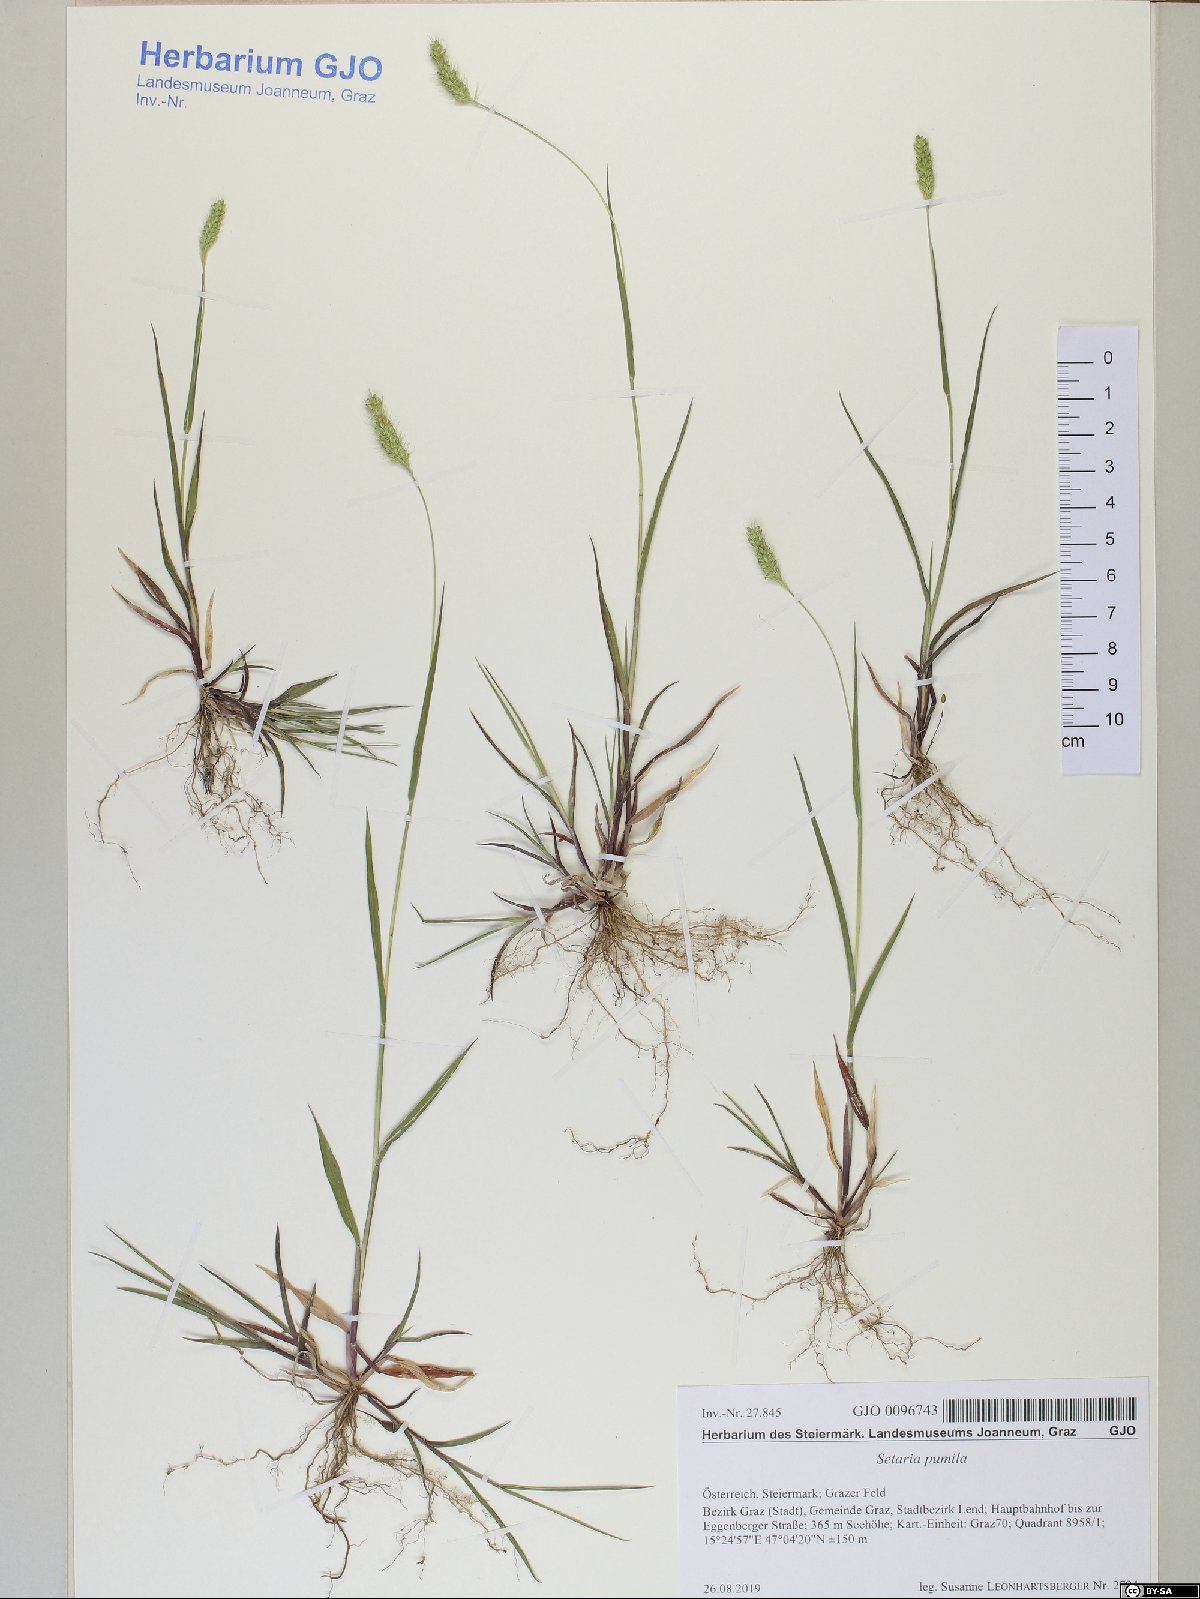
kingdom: Plantae
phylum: Tracheophyta
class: Liliopsida
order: Poales
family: Poaceae
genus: Setaria
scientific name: Setaria pumila
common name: Yellow bristle-grass
